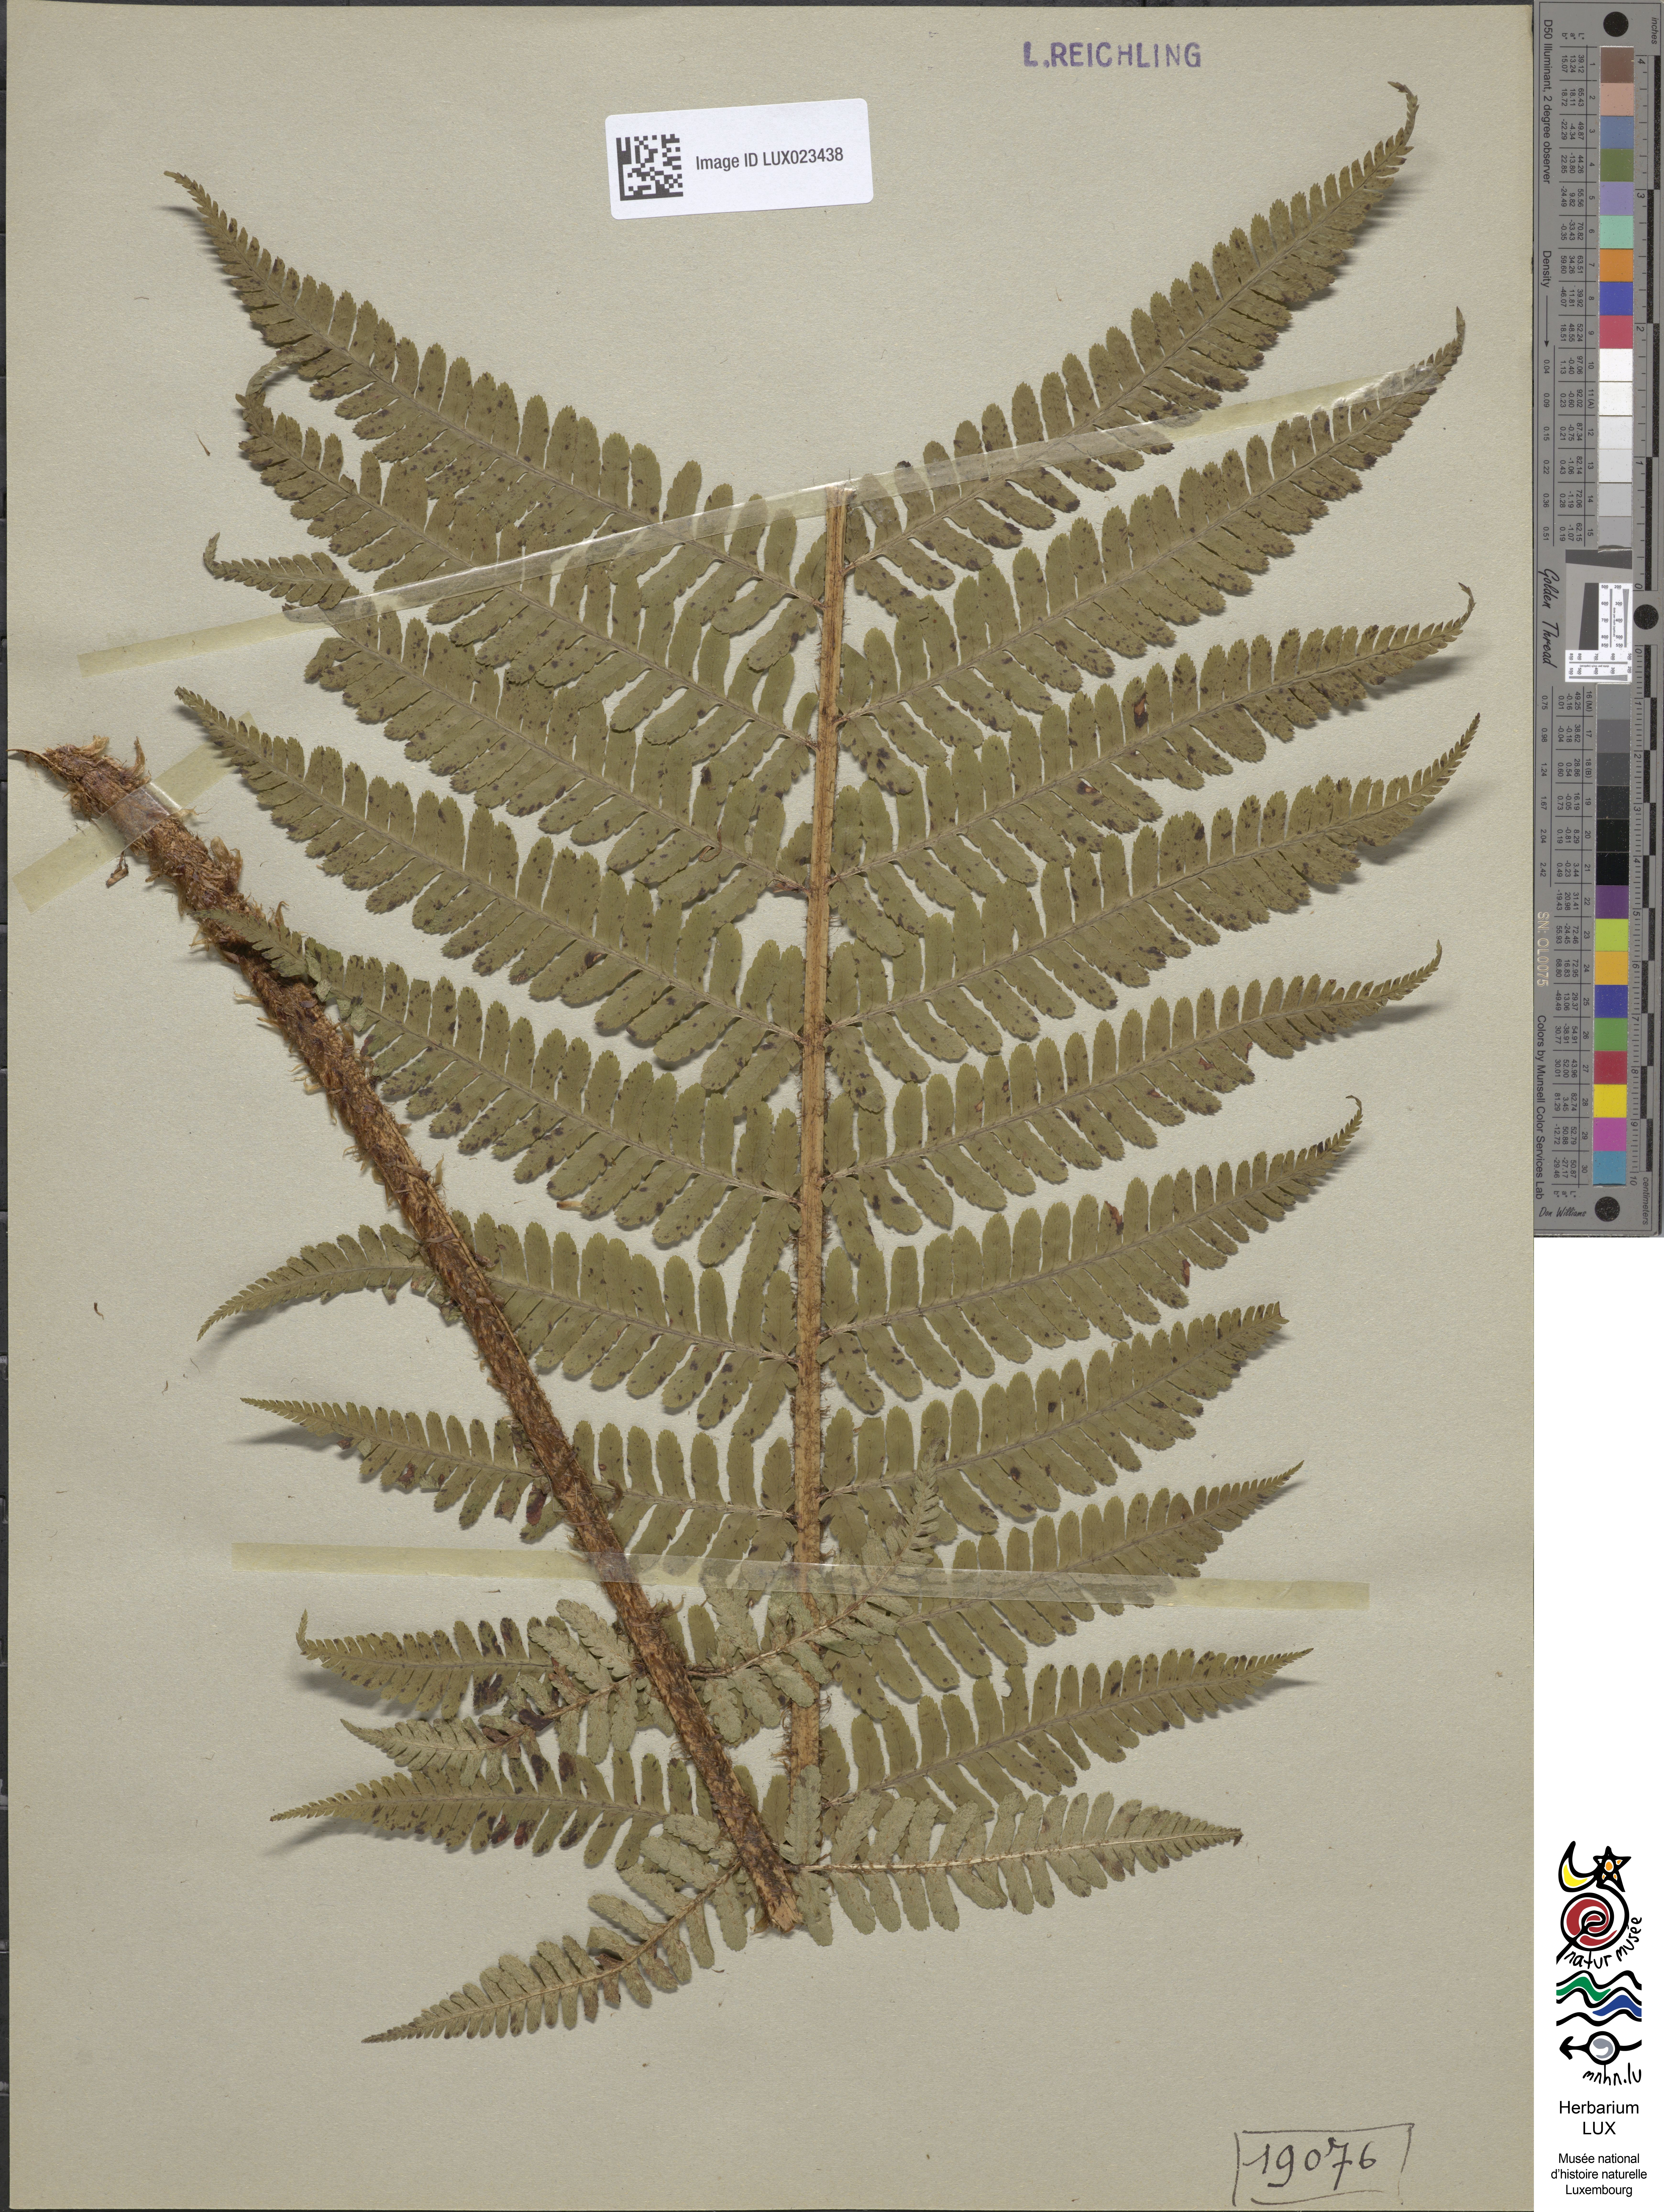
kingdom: Plantae
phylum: Tracheophyta
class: Polypodiopsida
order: Polypodiales
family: Dryopteridaceae
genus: Dryopteris
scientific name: Dryopteris borreri
